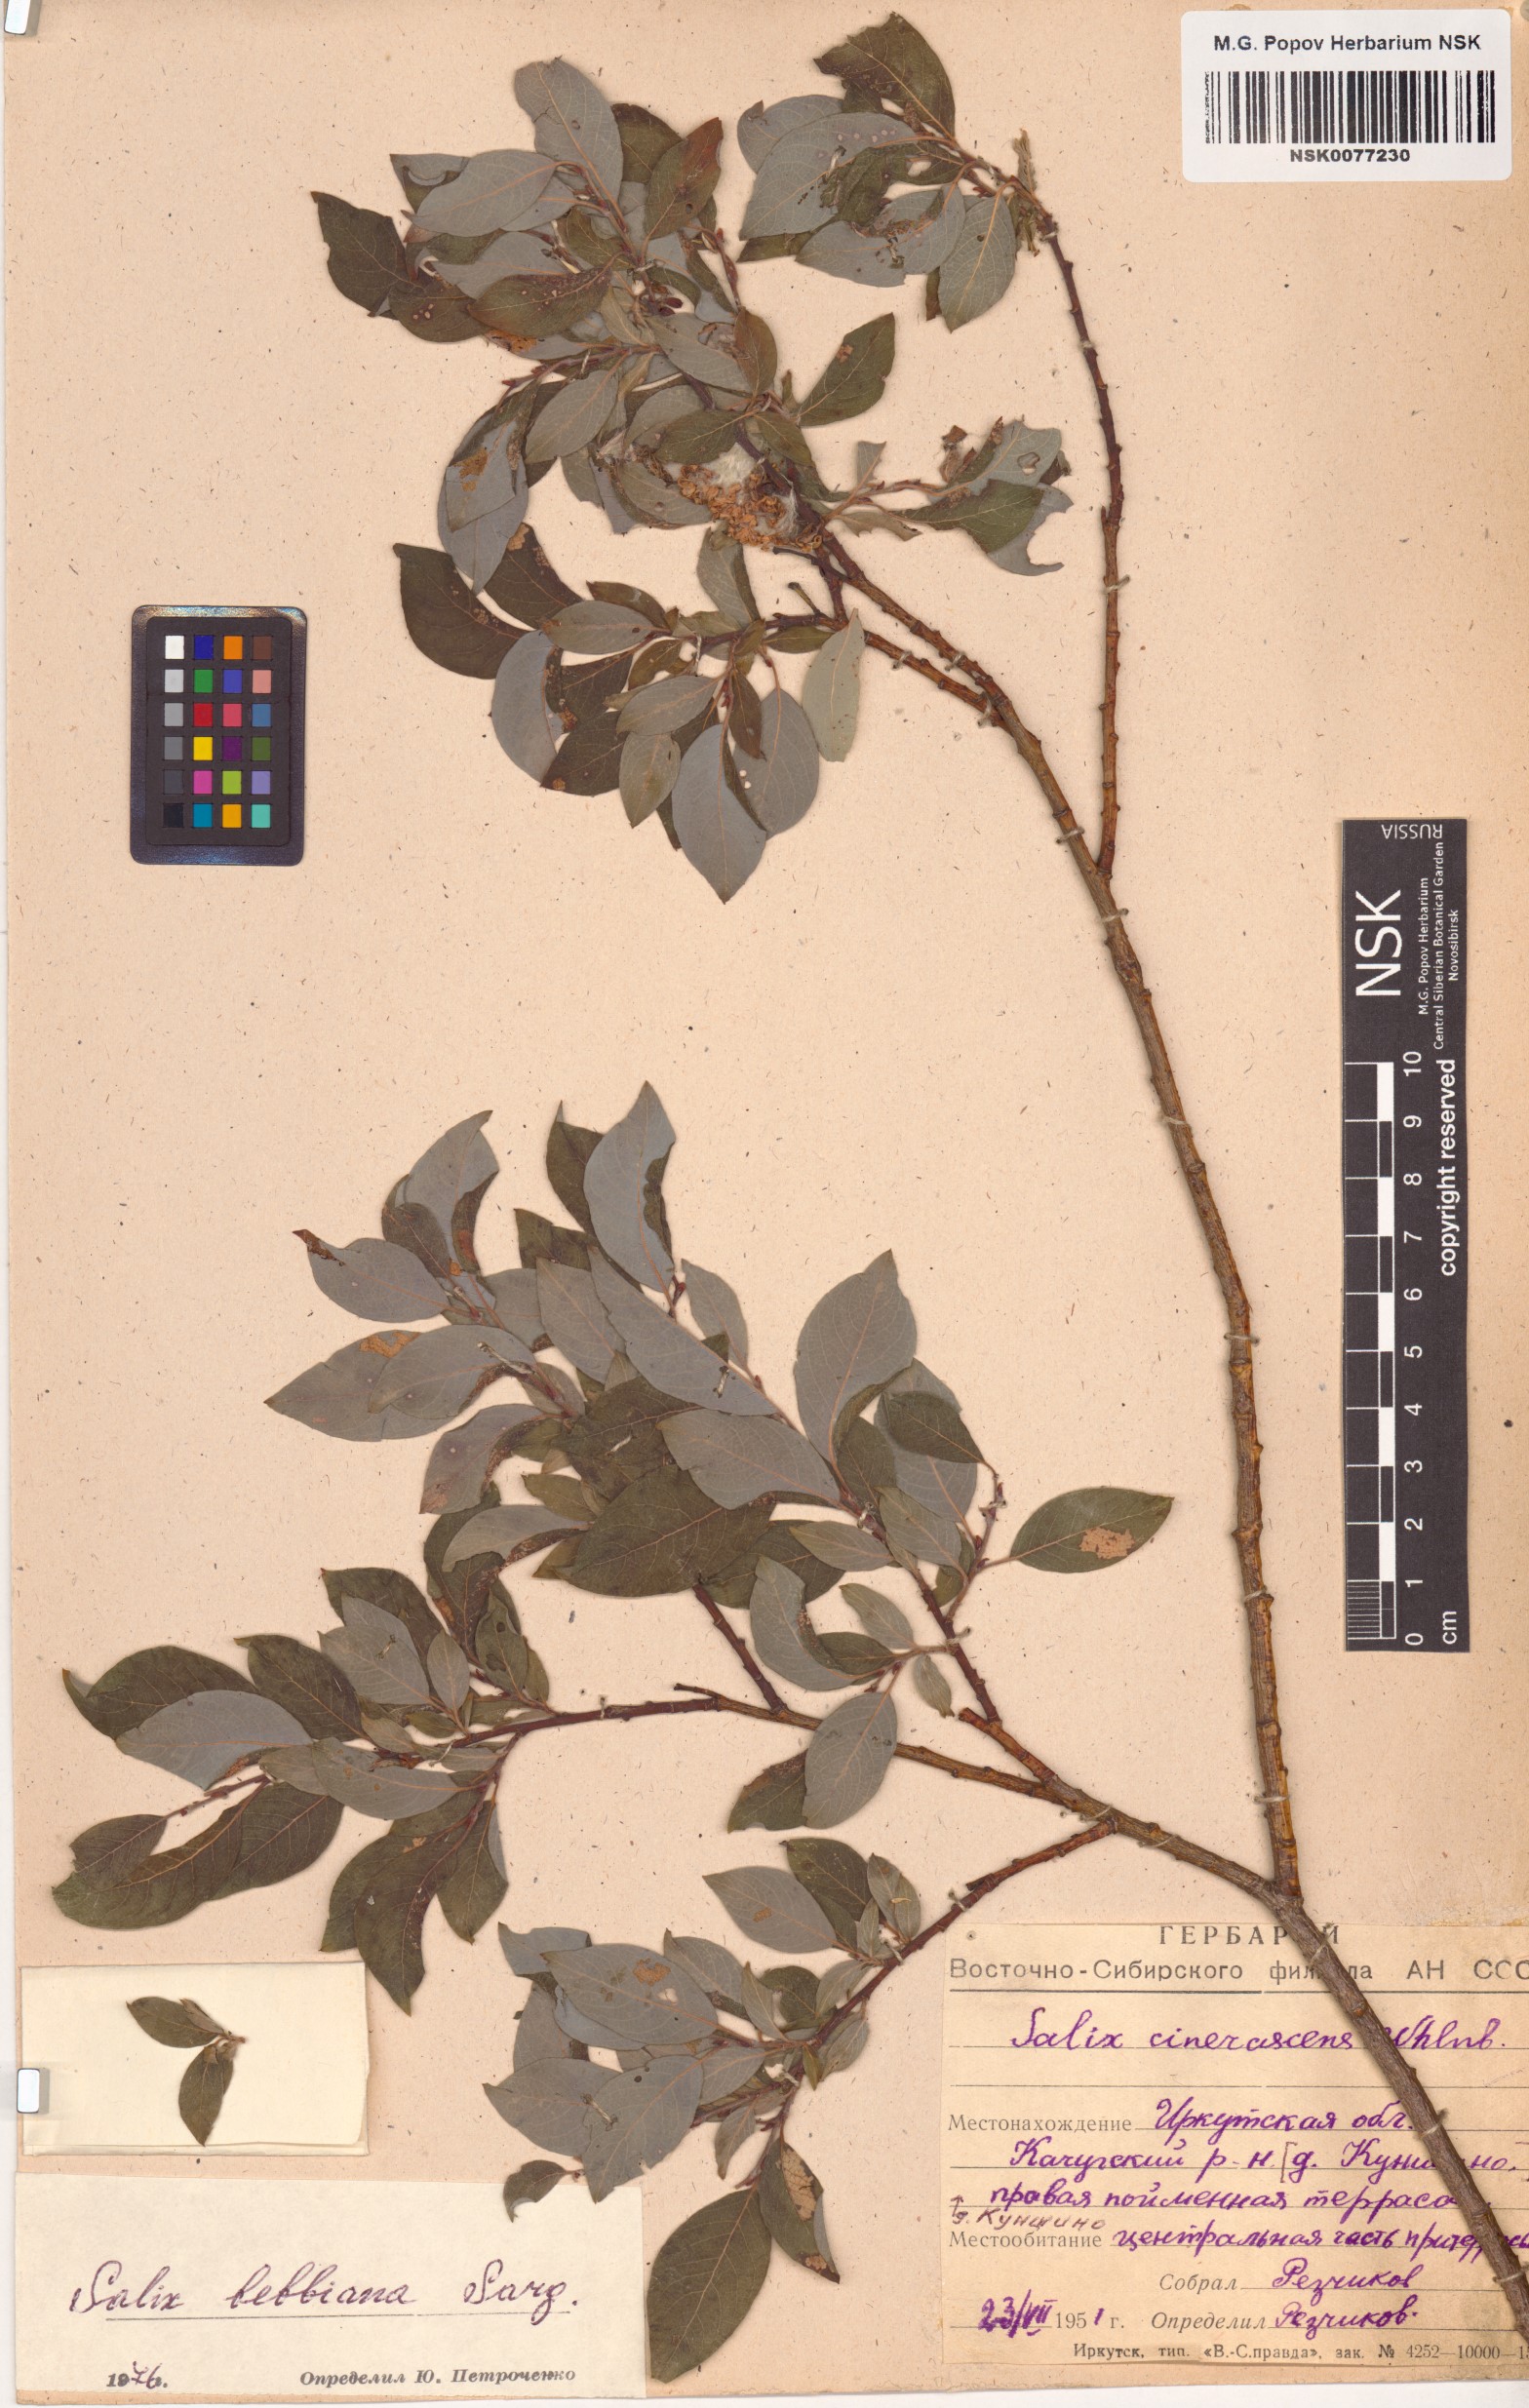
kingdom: Plantae
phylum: Tracheophyta
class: Magnoliopsida
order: Malpighiales
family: Salicaceae
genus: Salix
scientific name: Salix bebbiana
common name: Bebb's willow
